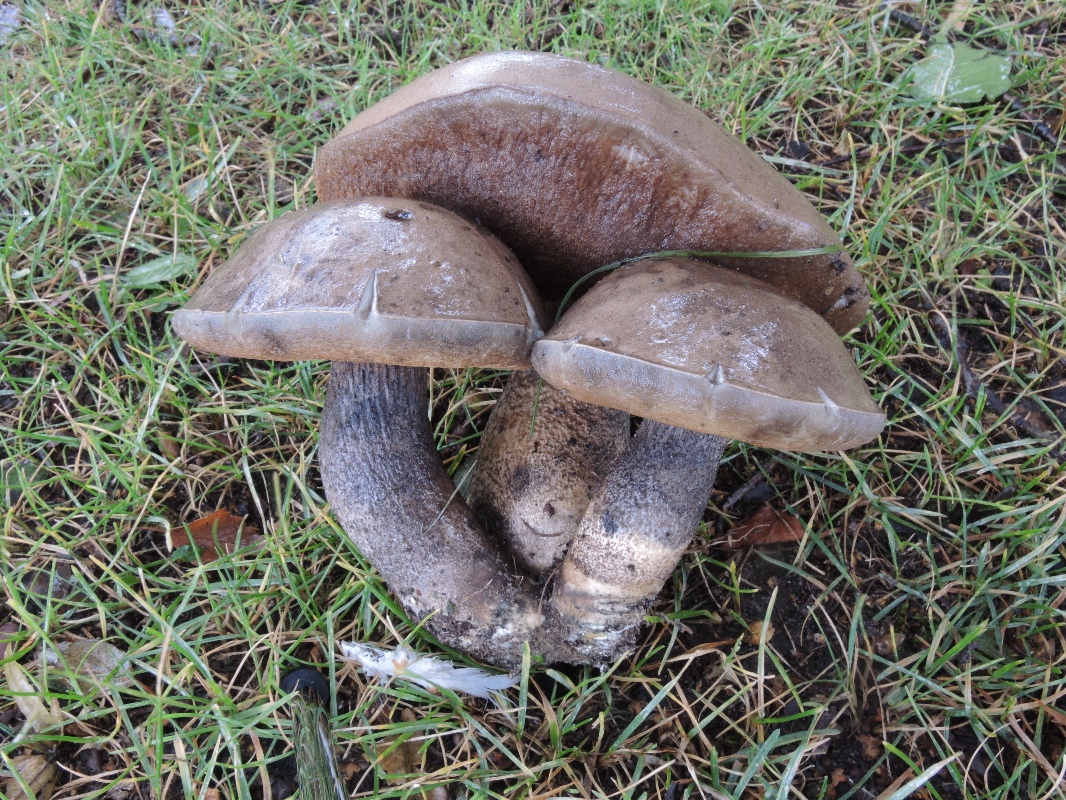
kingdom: Fungi
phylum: Basidiomycota
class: Agaricomycetes
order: Boletales
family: Boletaceae
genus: Leccinum
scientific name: Leccinum duriusculum
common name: poppel-skælrørhat
